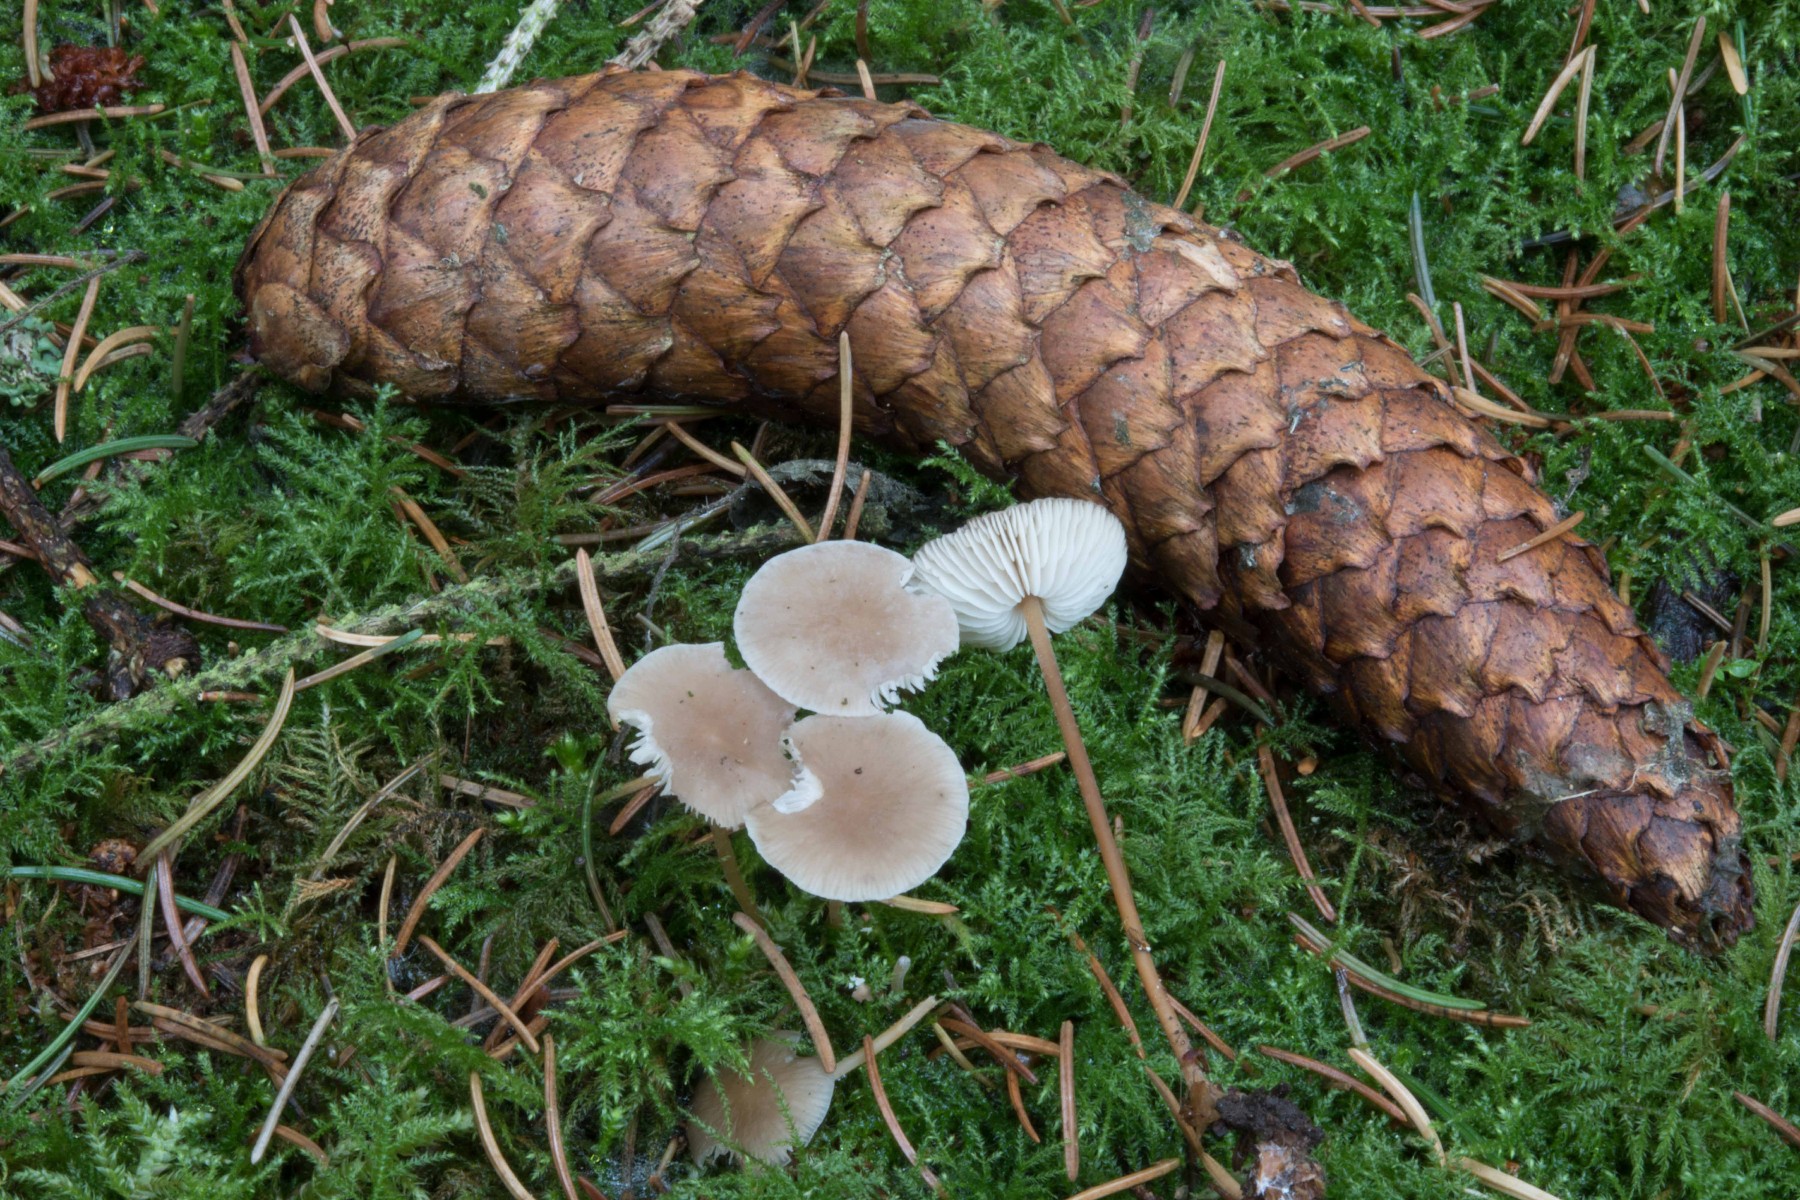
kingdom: Fungi
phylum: Basidiomycota
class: Agaricomycetes
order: Agaricales
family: Physalacriaceae
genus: Strobilurus
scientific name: Strobilurus esculentus
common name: gran-koglehat
